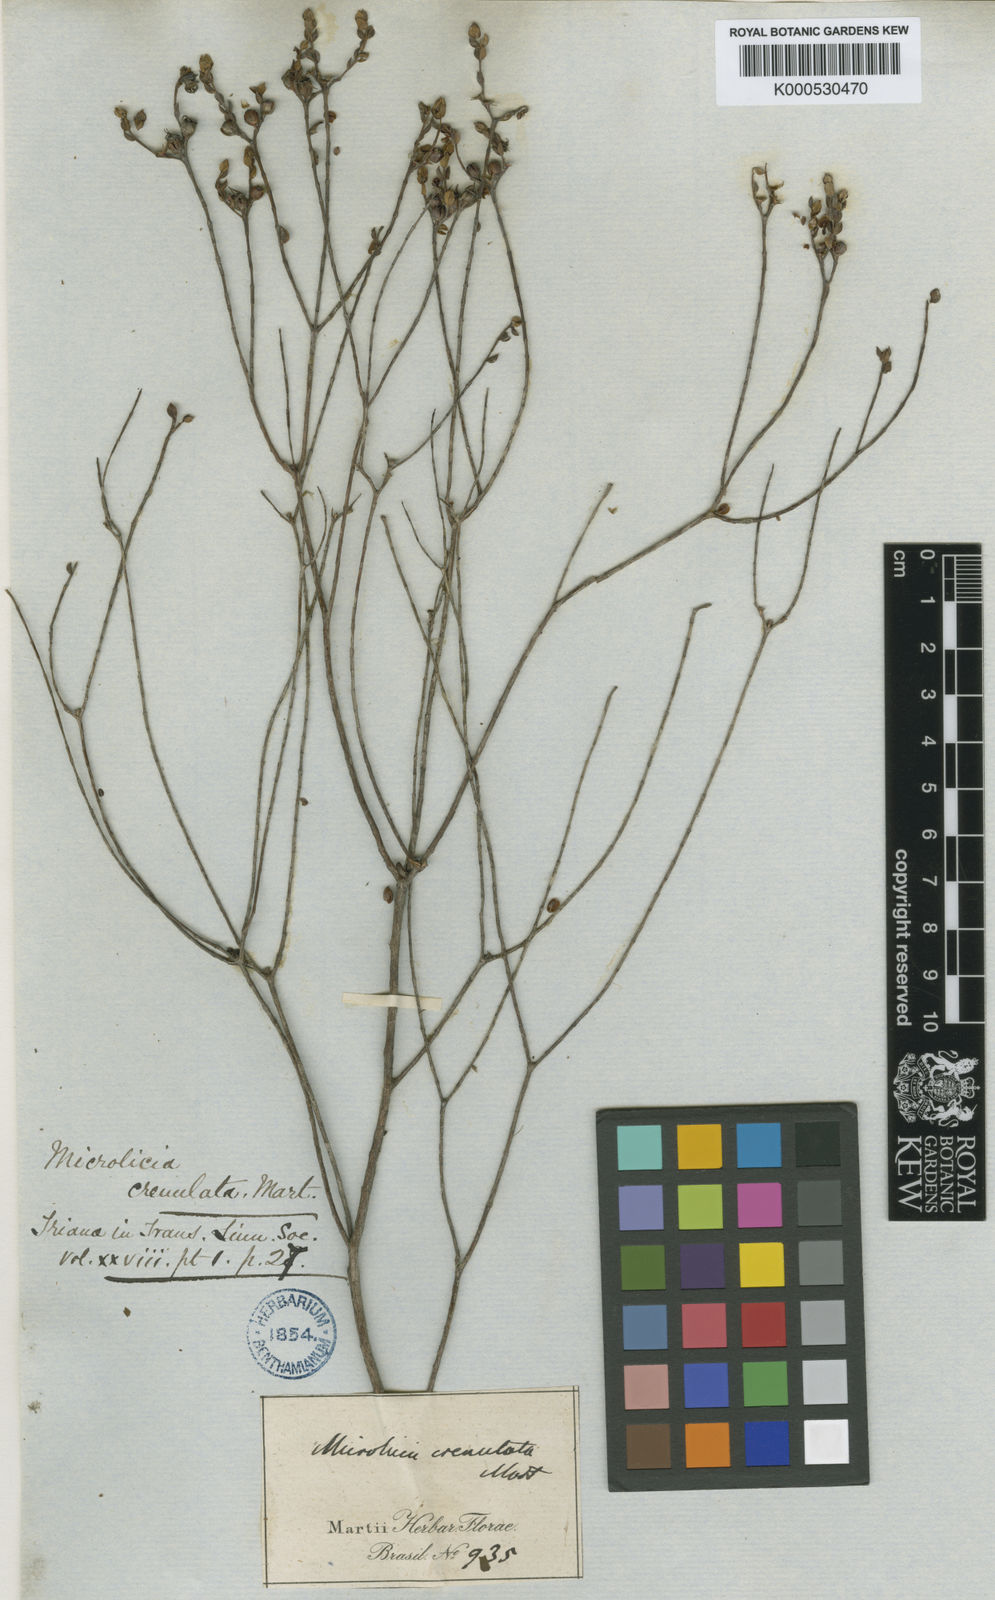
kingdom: Plantae
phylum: Tracheophyta
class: Magnoliopsida
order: Myrtales
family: Melastomataceae
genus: Microlicia
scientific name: Microlicia crenulata
